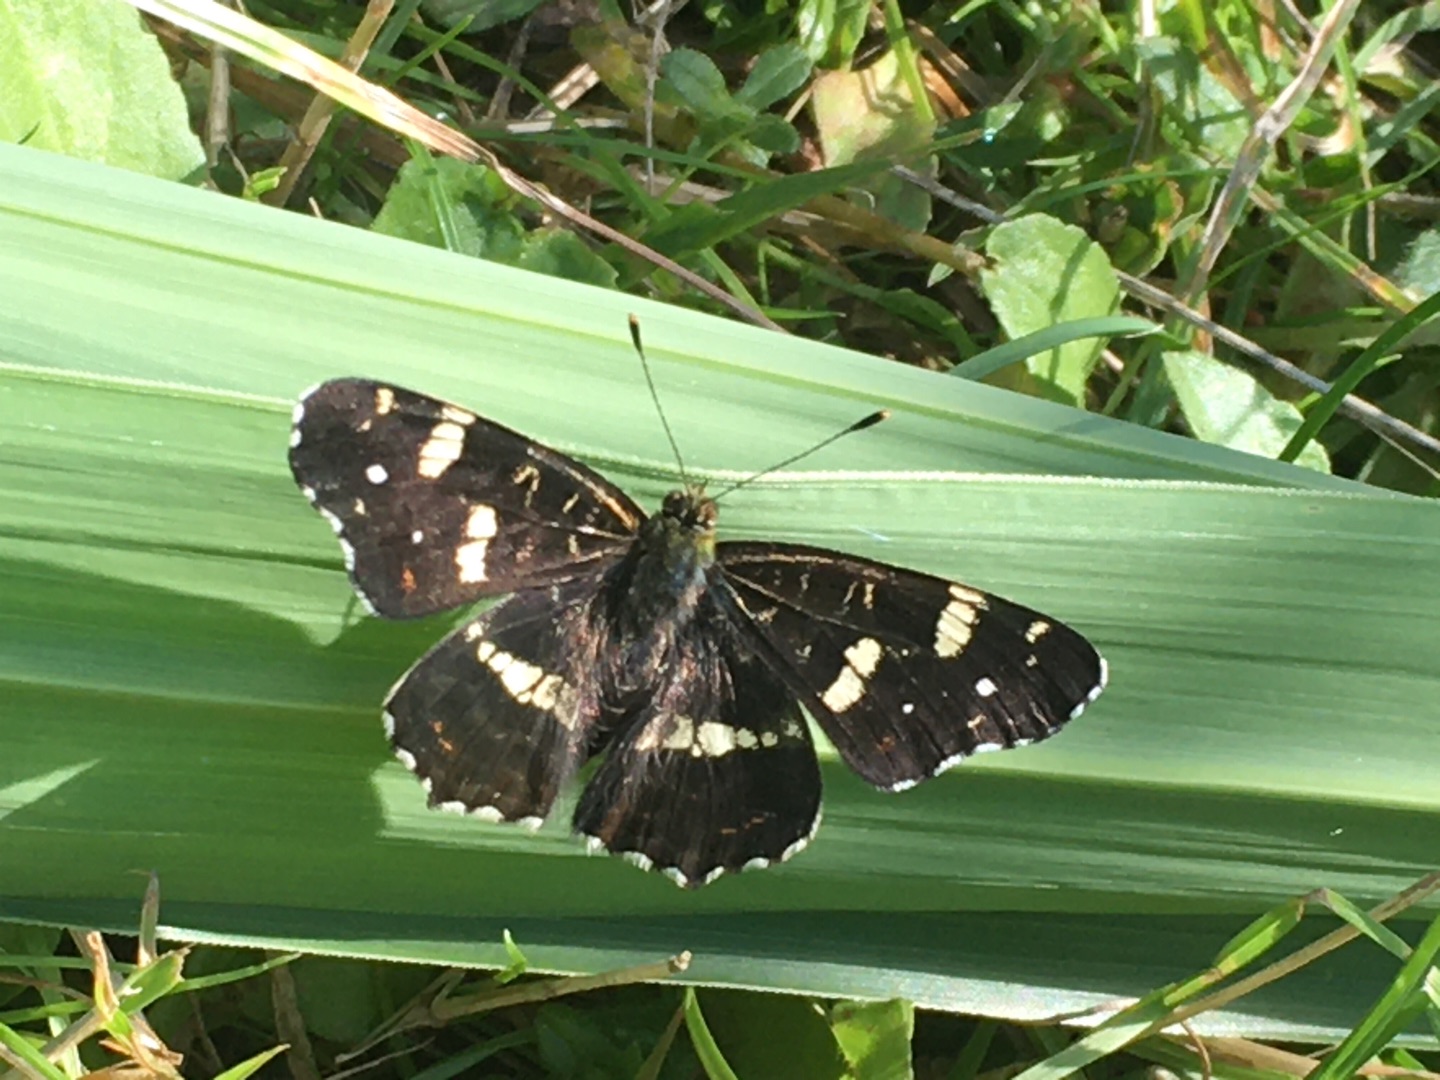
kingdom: Animalia
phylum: Arthropoda
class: Insecta
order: Lepidoptera
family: Nymphalidae
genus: Araschnia
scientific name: Araschnia levana
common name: Nældesommerfugl
